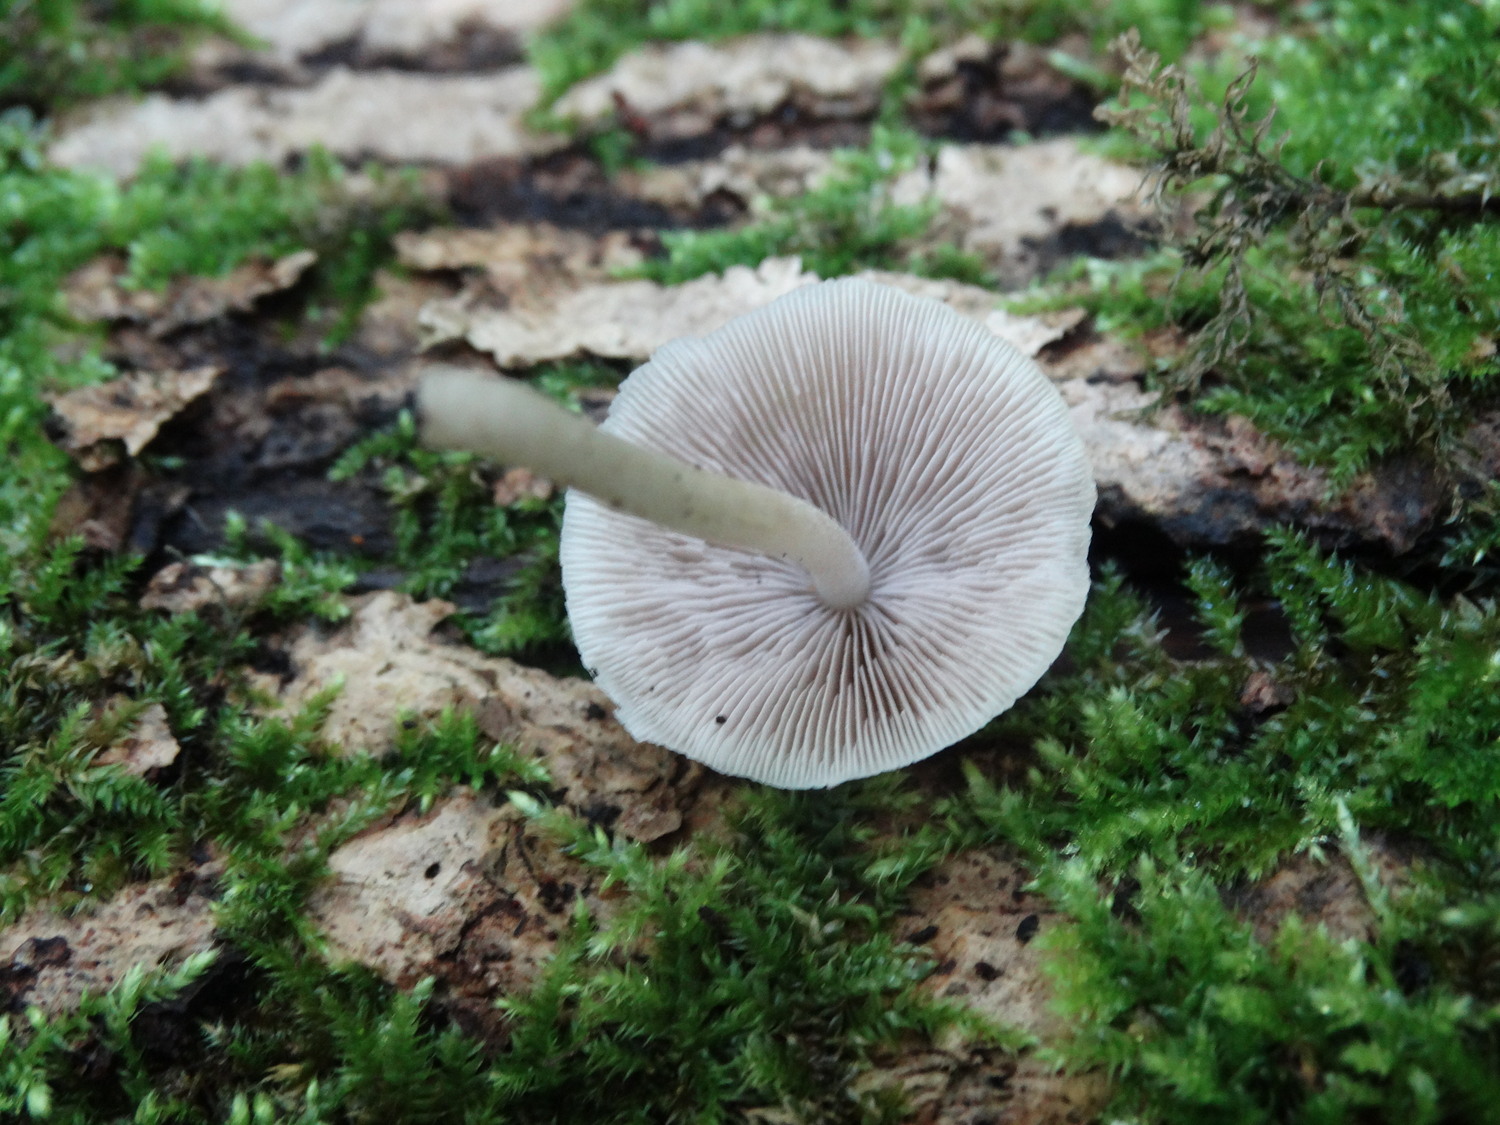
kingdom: Fungi
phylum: Basidiomycota
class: Agaricomycetes
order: Agaricales
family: Psathyrellaceae
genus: Candolleomyces
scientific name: Candolleomyces candolleanus
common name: Candolles mørkhat
